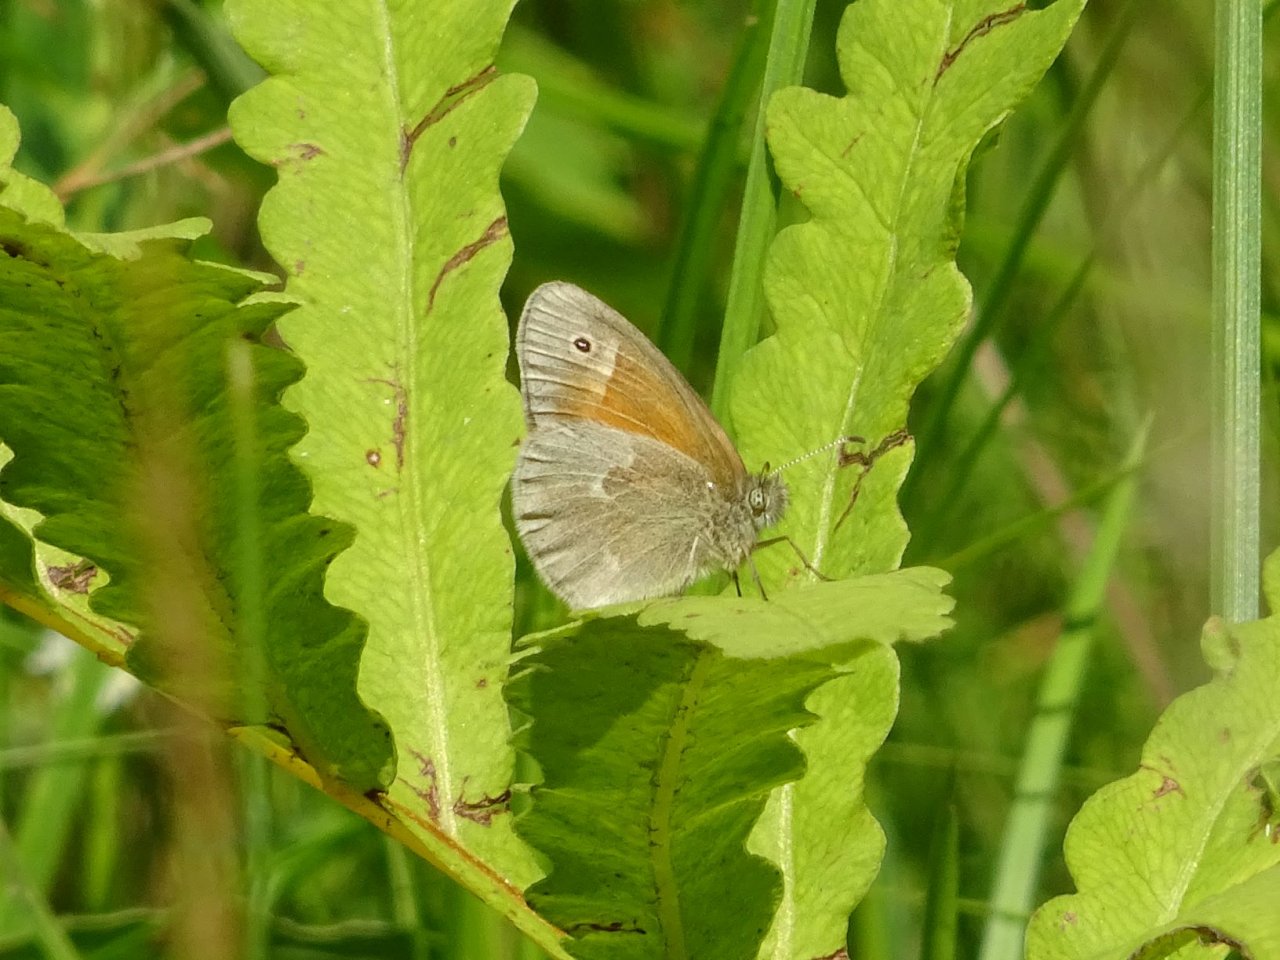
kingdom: Animalia
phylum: Arthropoda
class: Insecta
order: Lepidoptera
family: Nymphalidae
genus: Coenonympha
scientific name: Coenonympha tullia
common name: Large Heath
